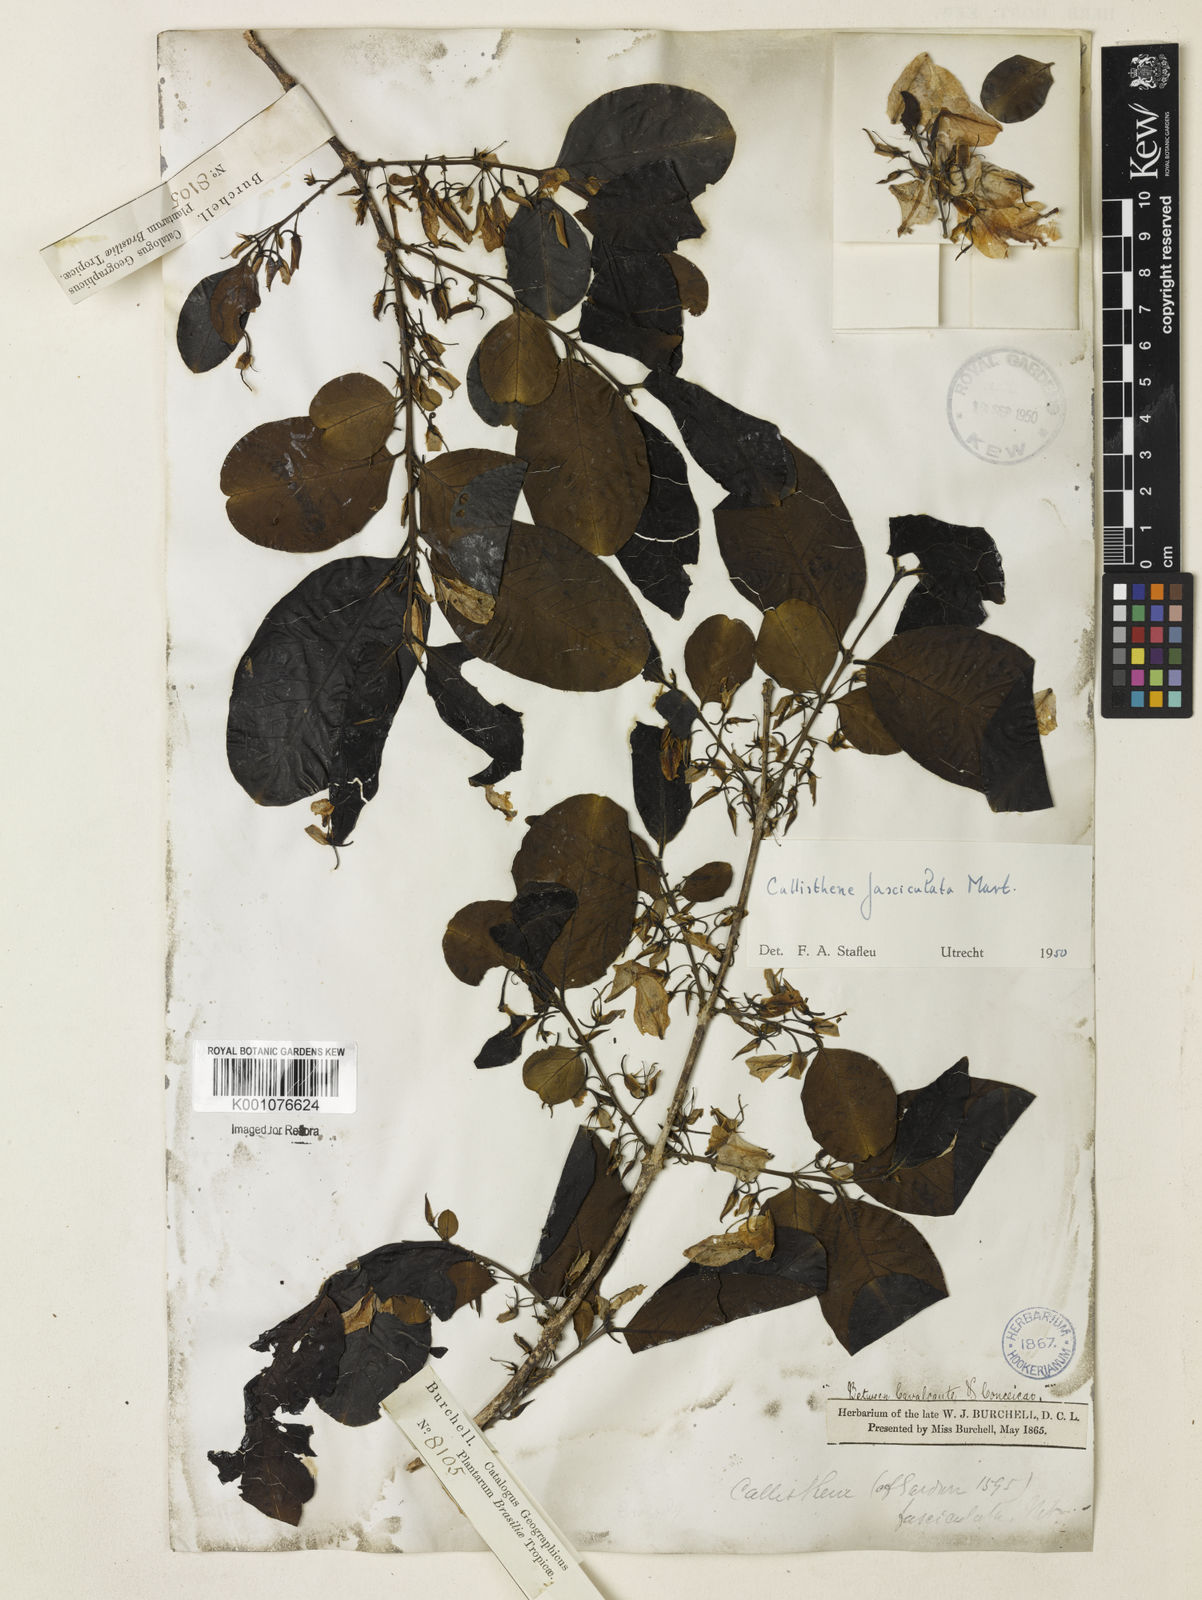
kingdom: Plantae
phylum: Tracheophyta
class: Magnoliopsida
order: Myrtales
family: Vochysiaceae
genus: Callisthene
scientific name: Callisthene fasciculata
